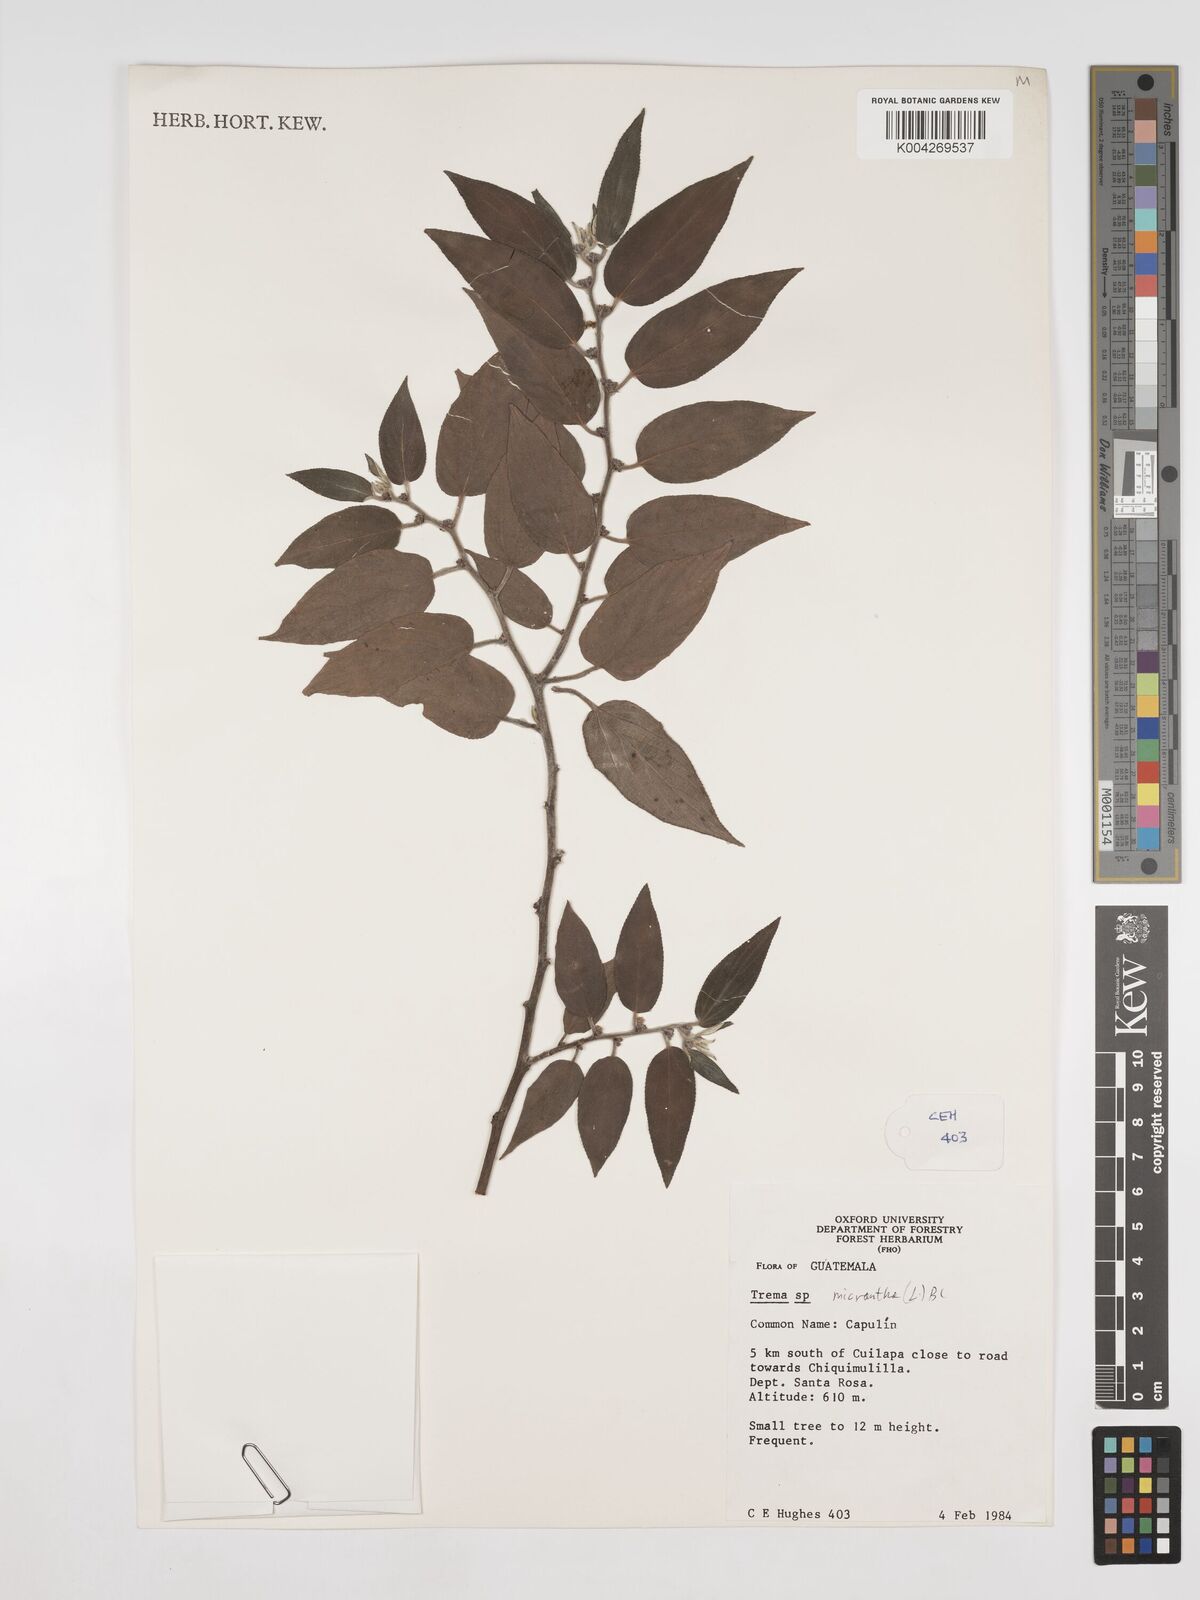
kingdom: Plantae
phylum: Tracheophyta
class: Magnoliopsida
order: Rosales
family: Cannabaceae
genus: Trema
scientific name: Trema micranthum
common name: Jamaican nettletree
